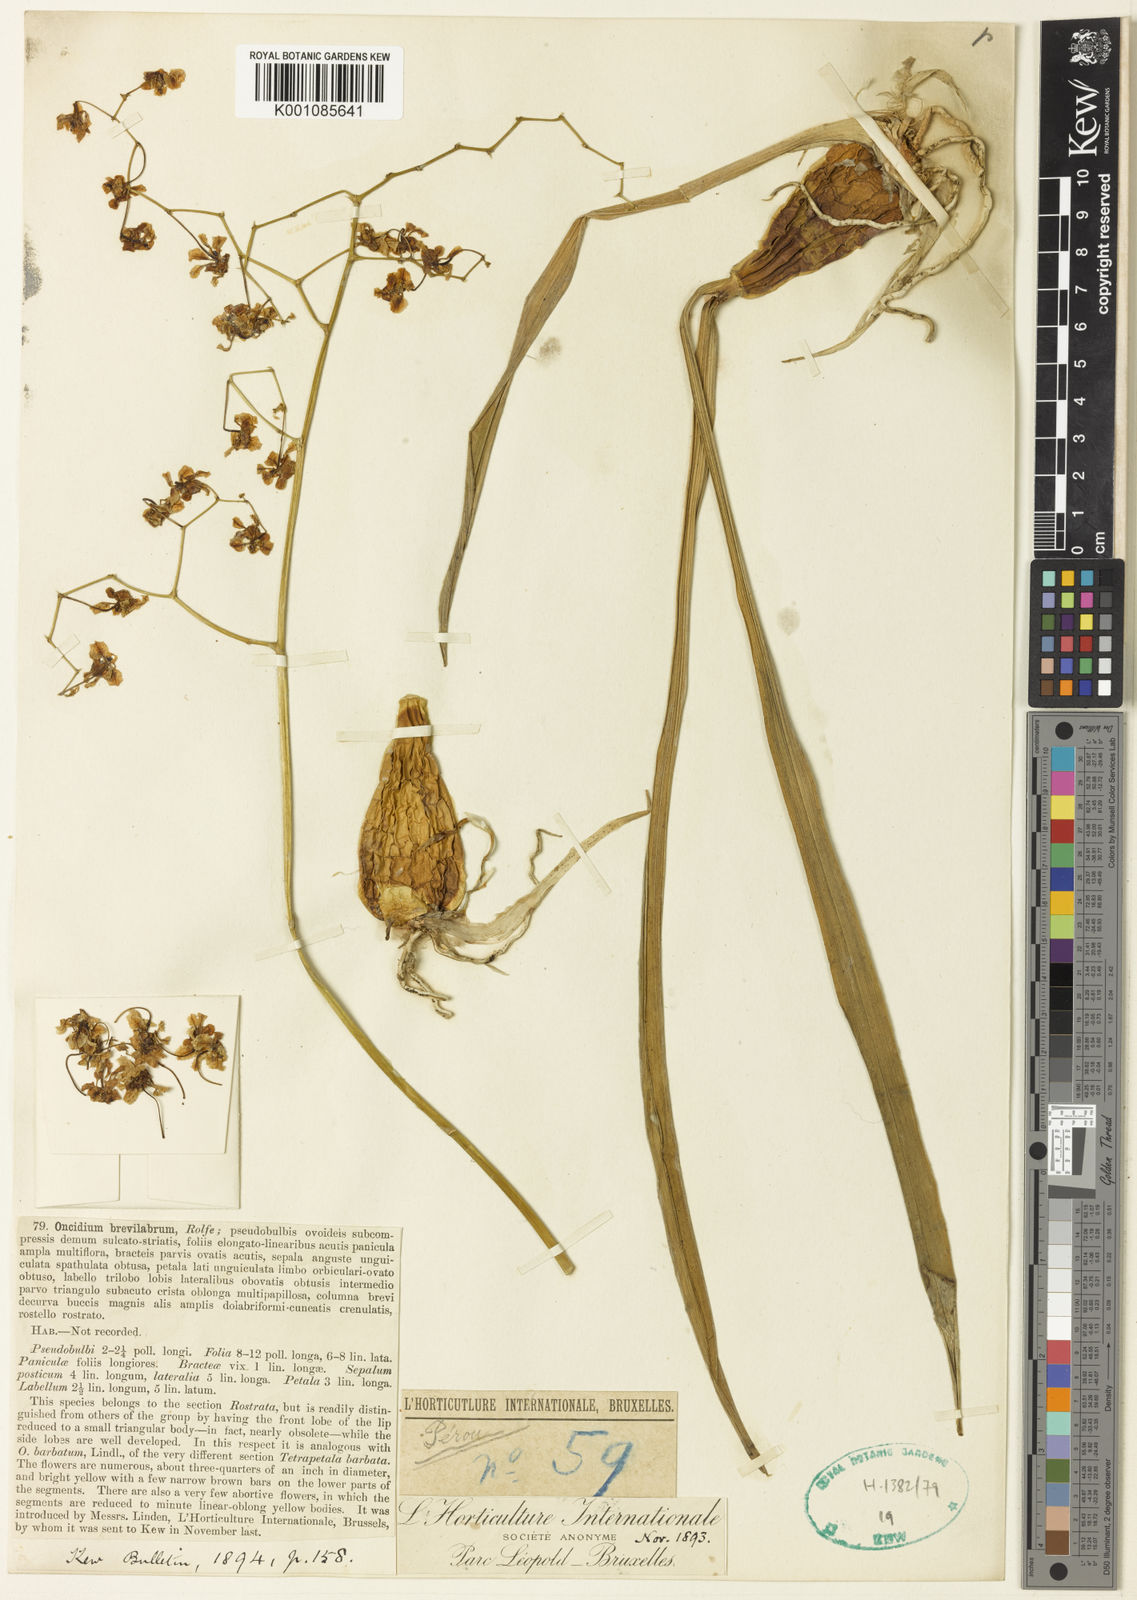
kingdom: Plantae
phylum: Tracheophyta
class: Liliopsida
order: Asparagales
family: Orchidaceae
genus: Oncidium
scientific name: Oncidium brevilabrum
